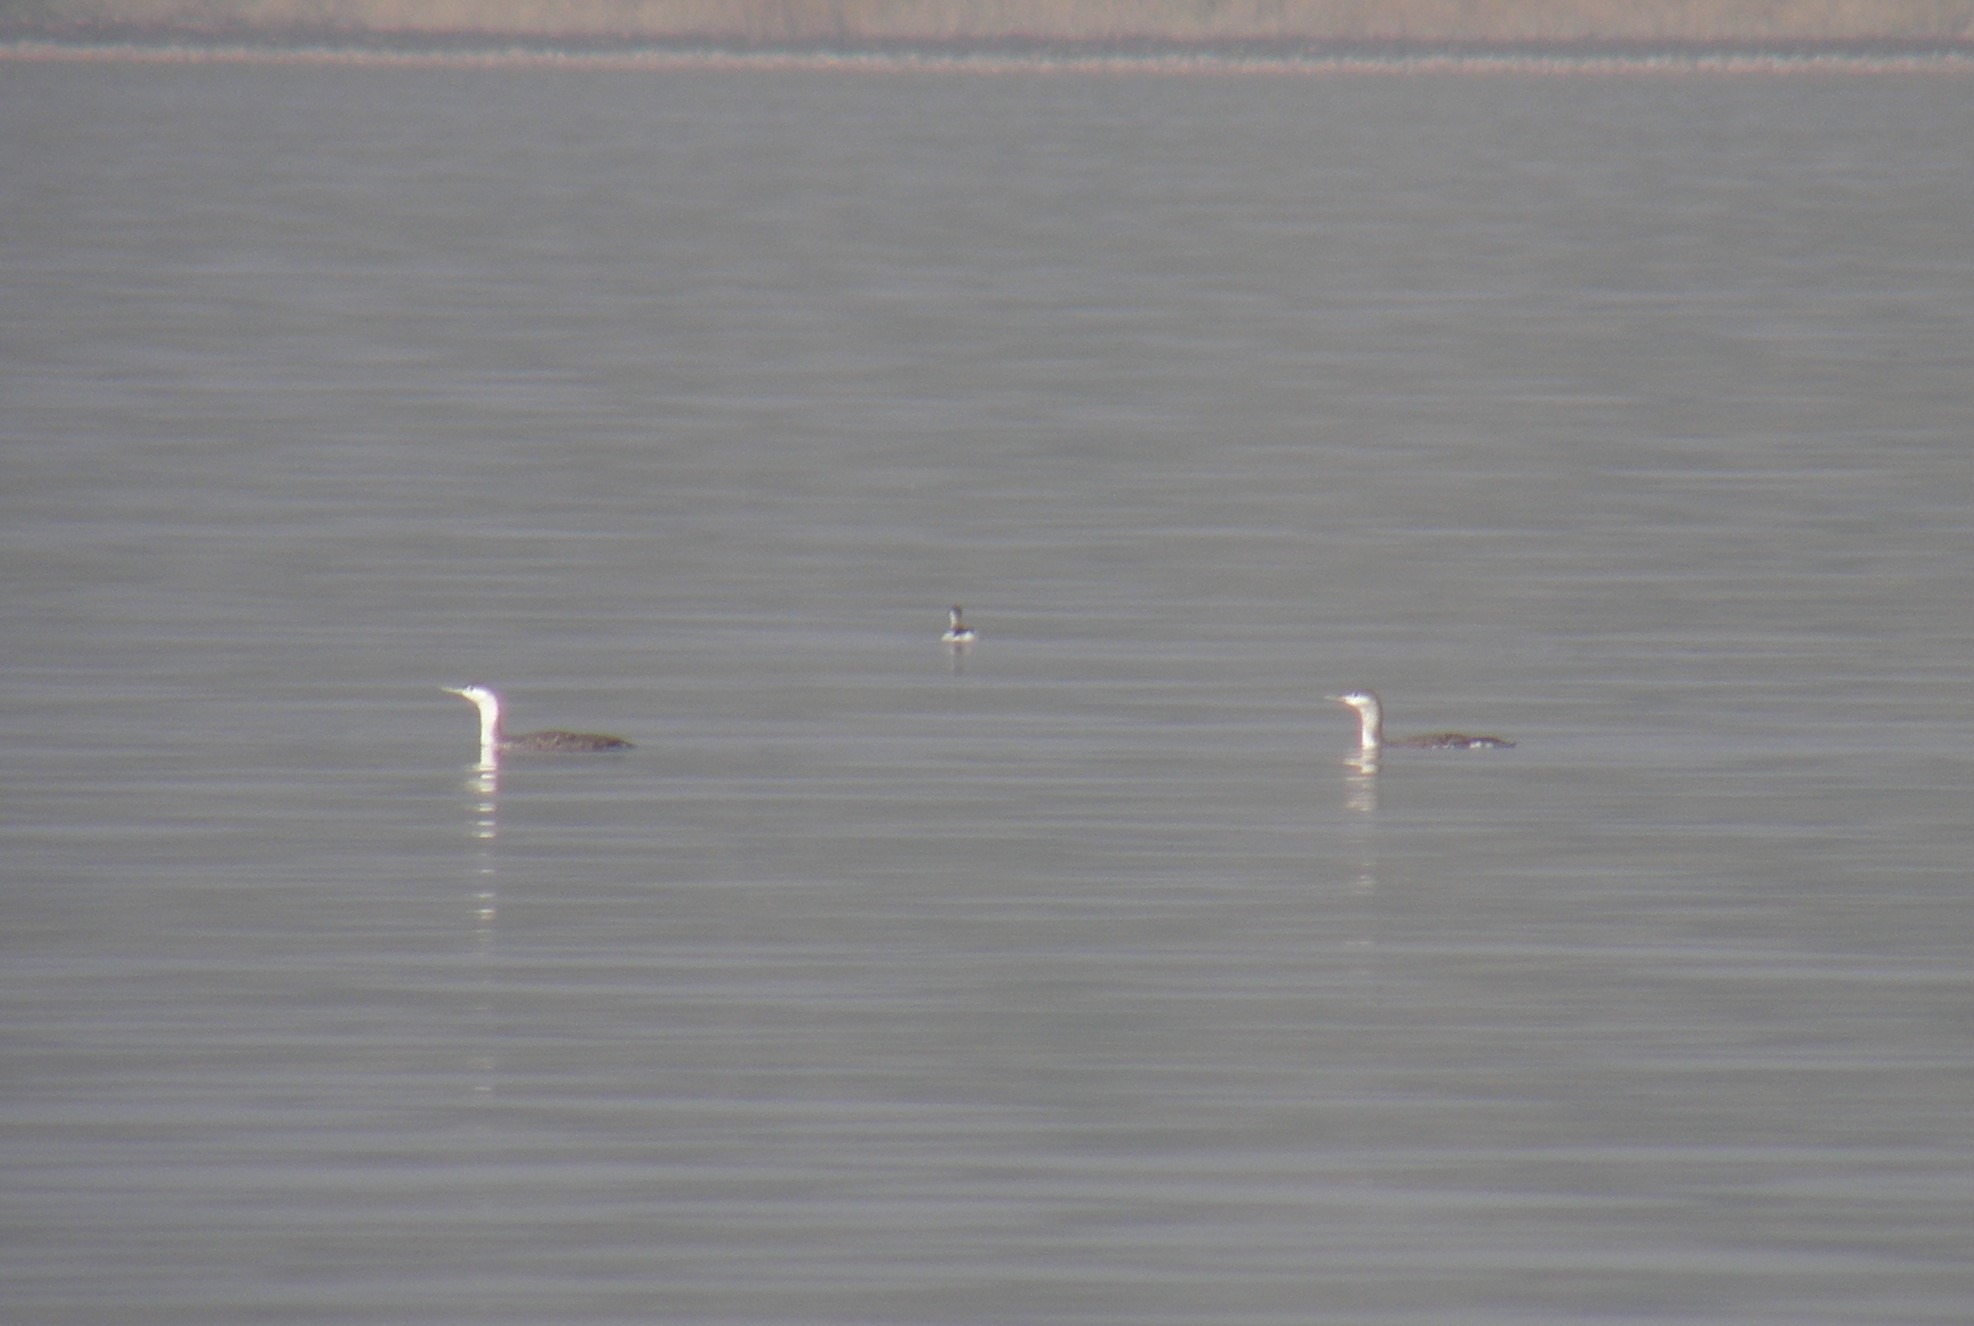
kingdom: Animalia
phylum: Chordata
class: Aves
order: Gaviiformes
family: Gaviidae
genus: Gavia
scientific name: Gavia stellata
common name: Rødstrubet lom
